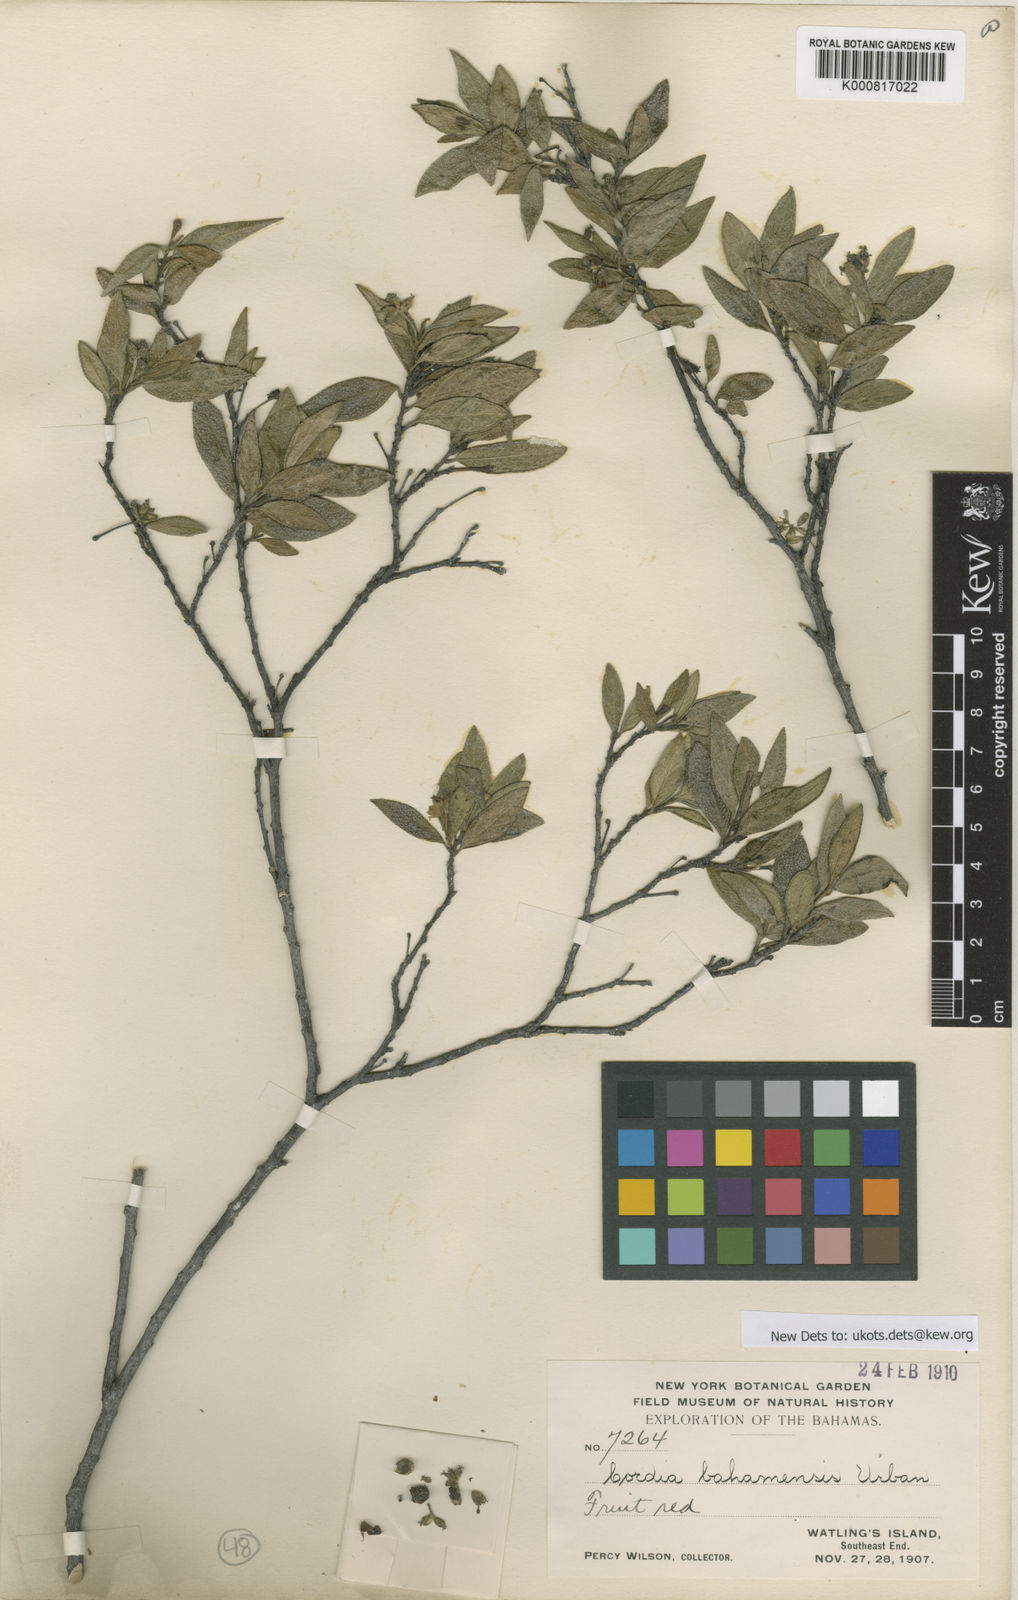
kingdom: Plantae
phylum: Tracheophyta
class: Magnoliopsida
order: Boraginales
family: Cordiaceae
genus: Varronia
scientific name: Varronia bahamensis
